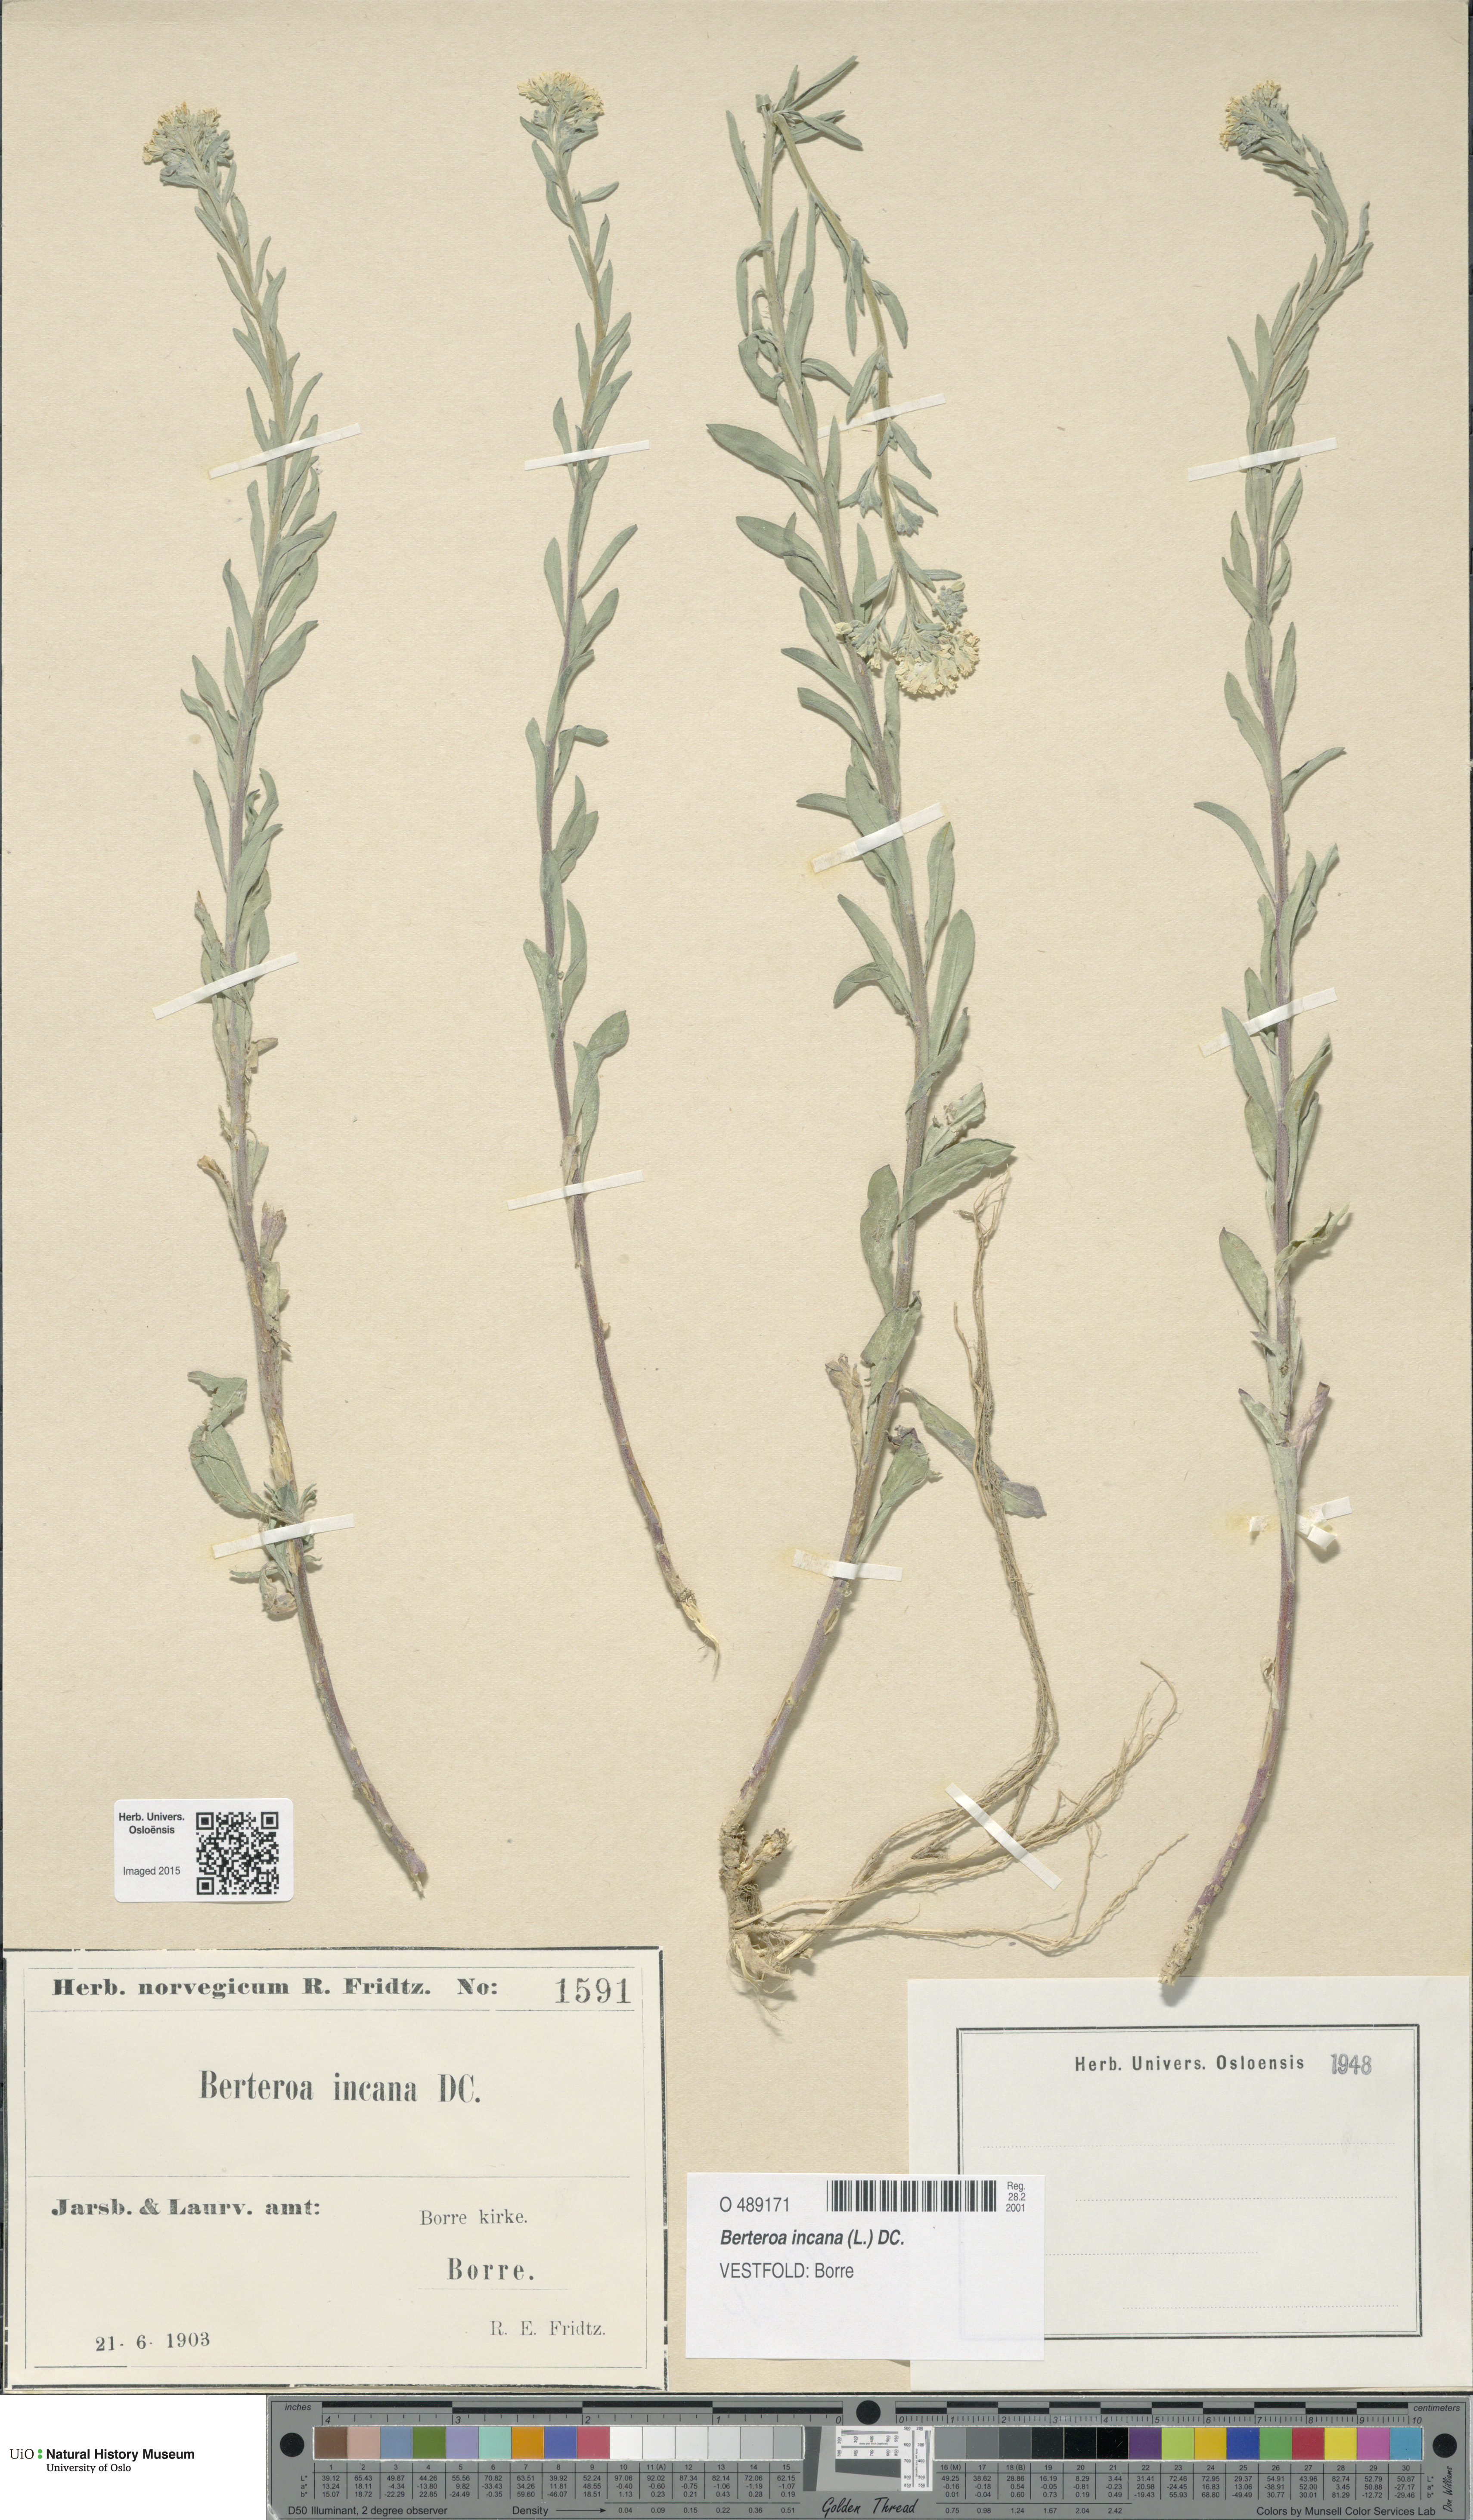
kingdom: Plantae
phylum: Tracheophyta
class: Magnoliopsida
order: Brassicales
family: Brassicaceae
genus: Berteroa
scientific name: Berteroa incana
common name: Hoary alison
